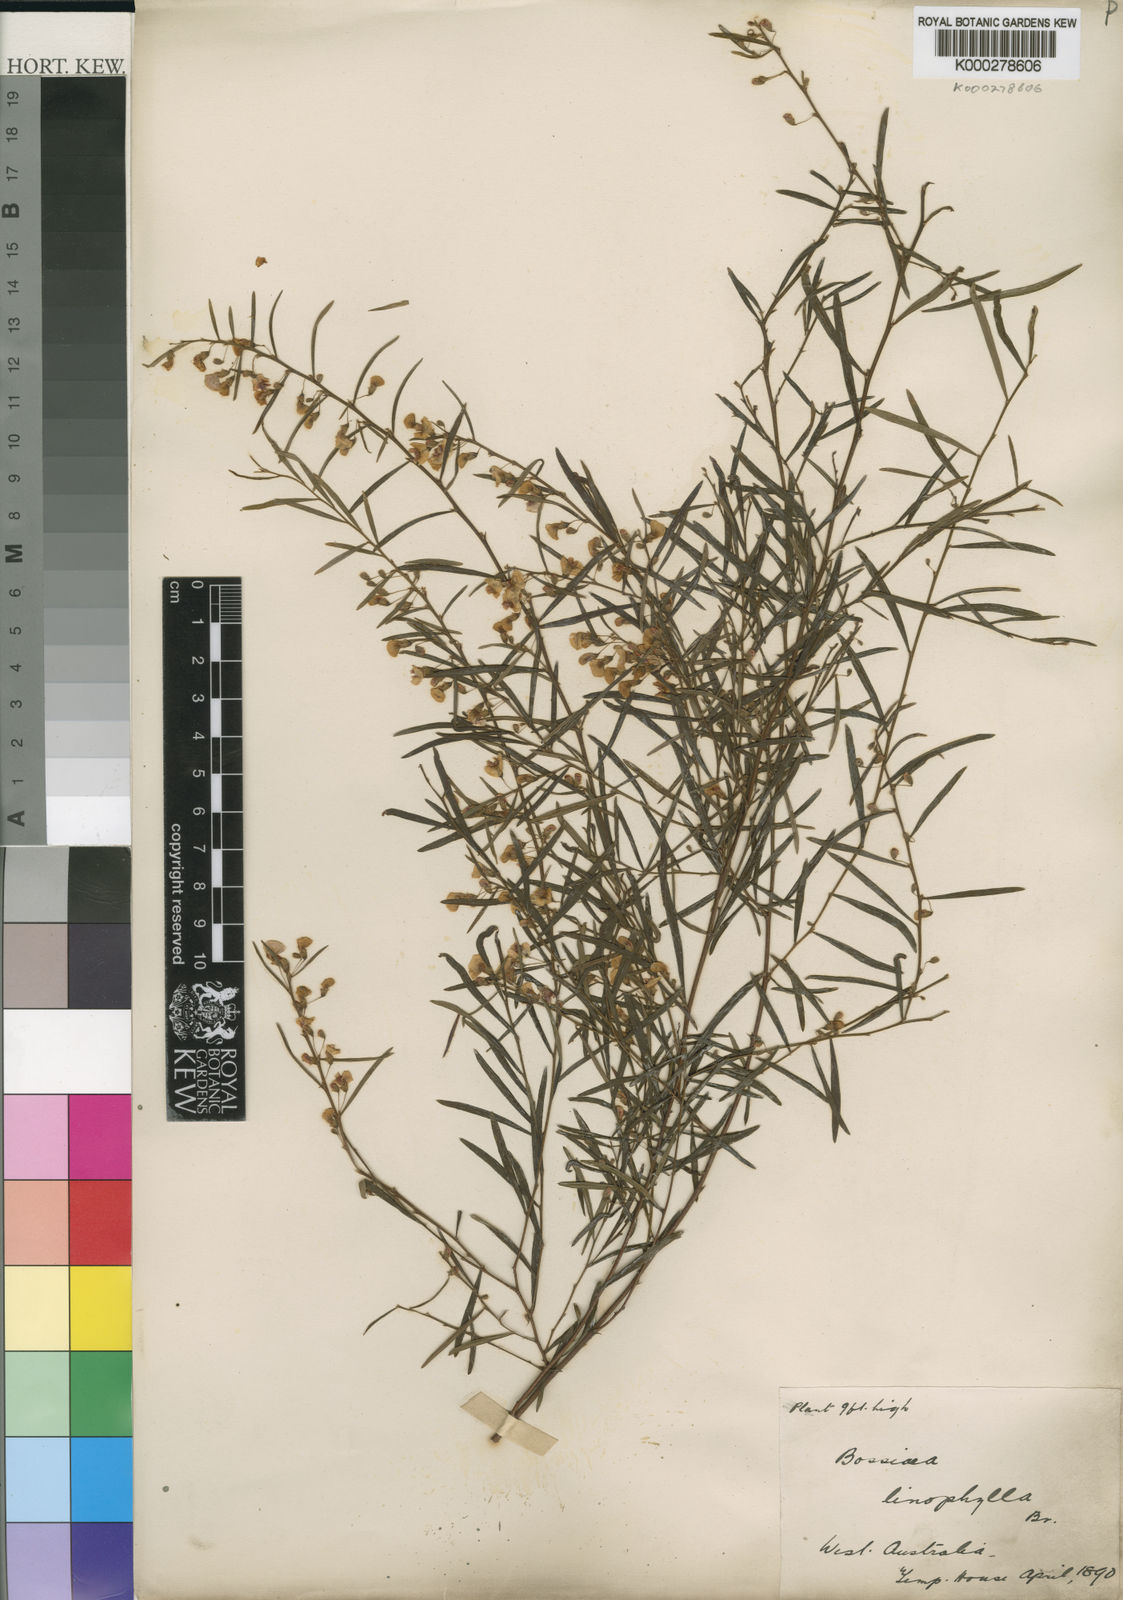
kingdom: Plantae
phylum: Tracheophyta
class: Magnoliopsida
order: Fabales
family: Fabaceae
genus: Bossiaea
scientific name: Bossiaea linophylla
